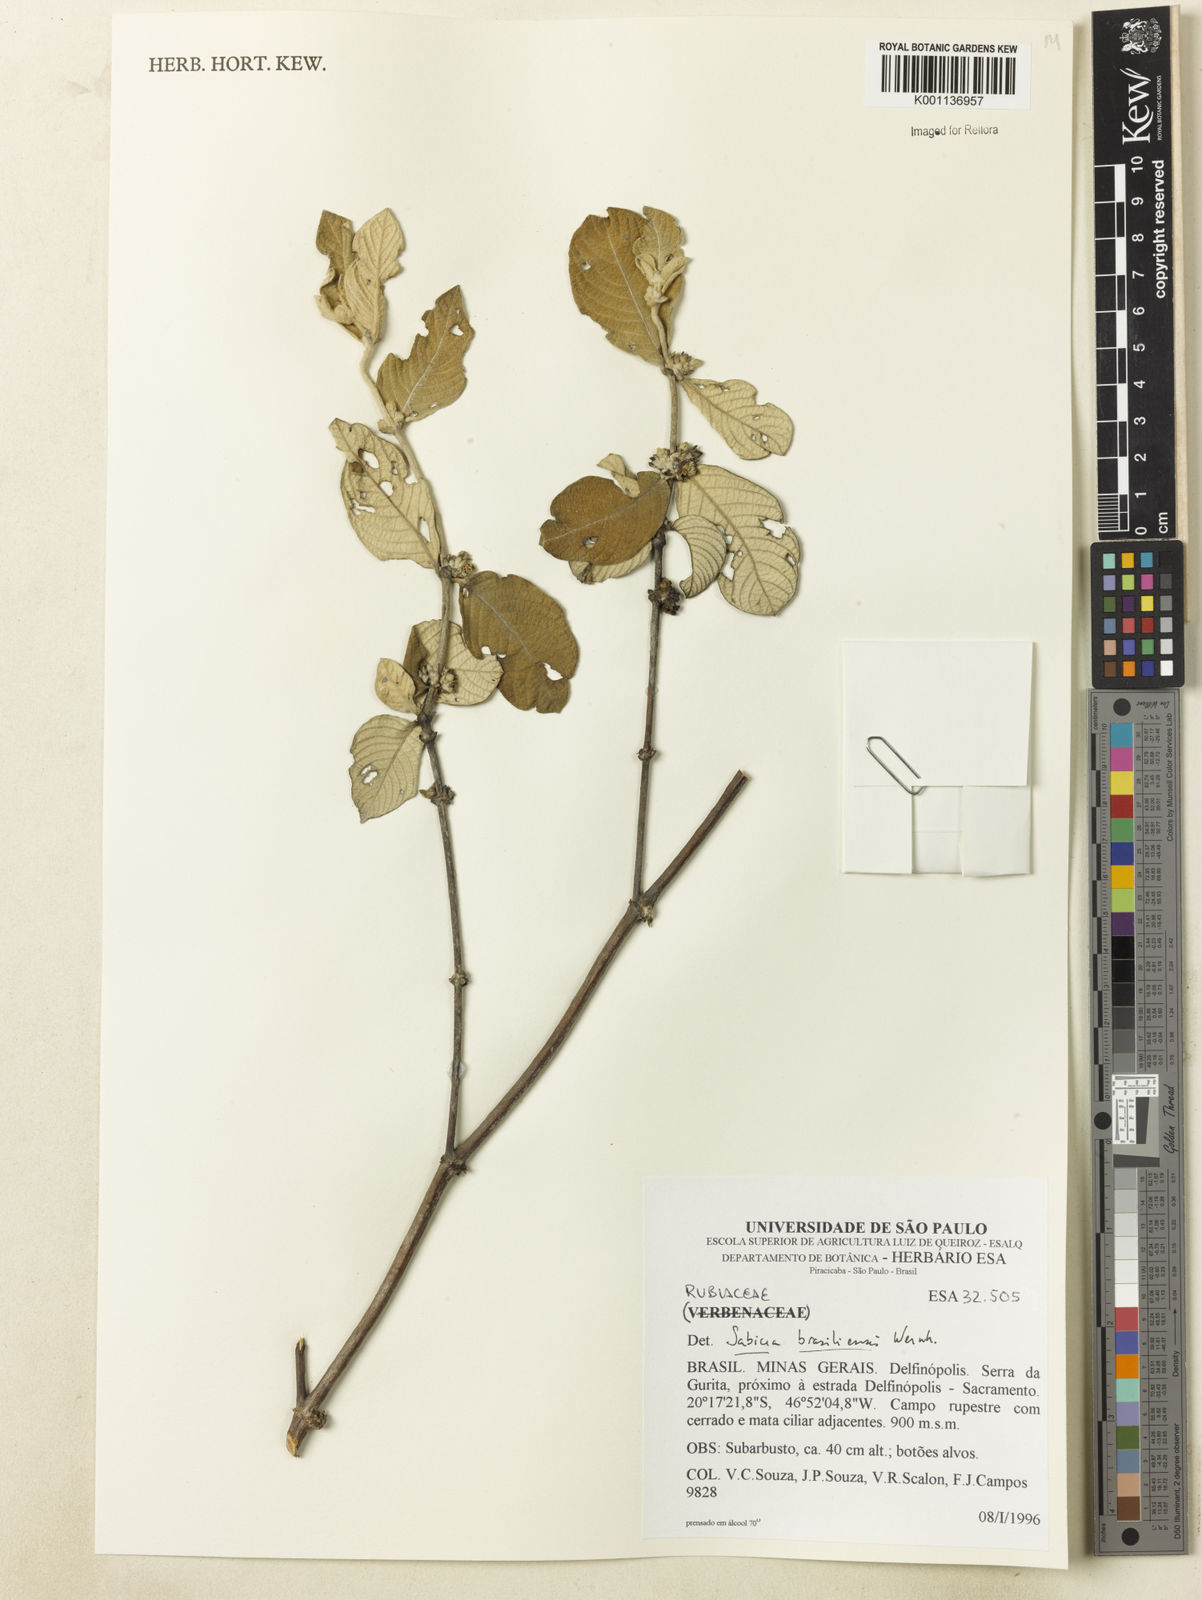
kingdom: Plantae
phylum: Tracheophyta
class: Magnoliopsida
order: Gentianales
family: Rubiaceae
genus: Sabicea
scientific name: Sabicea brasiliensis
